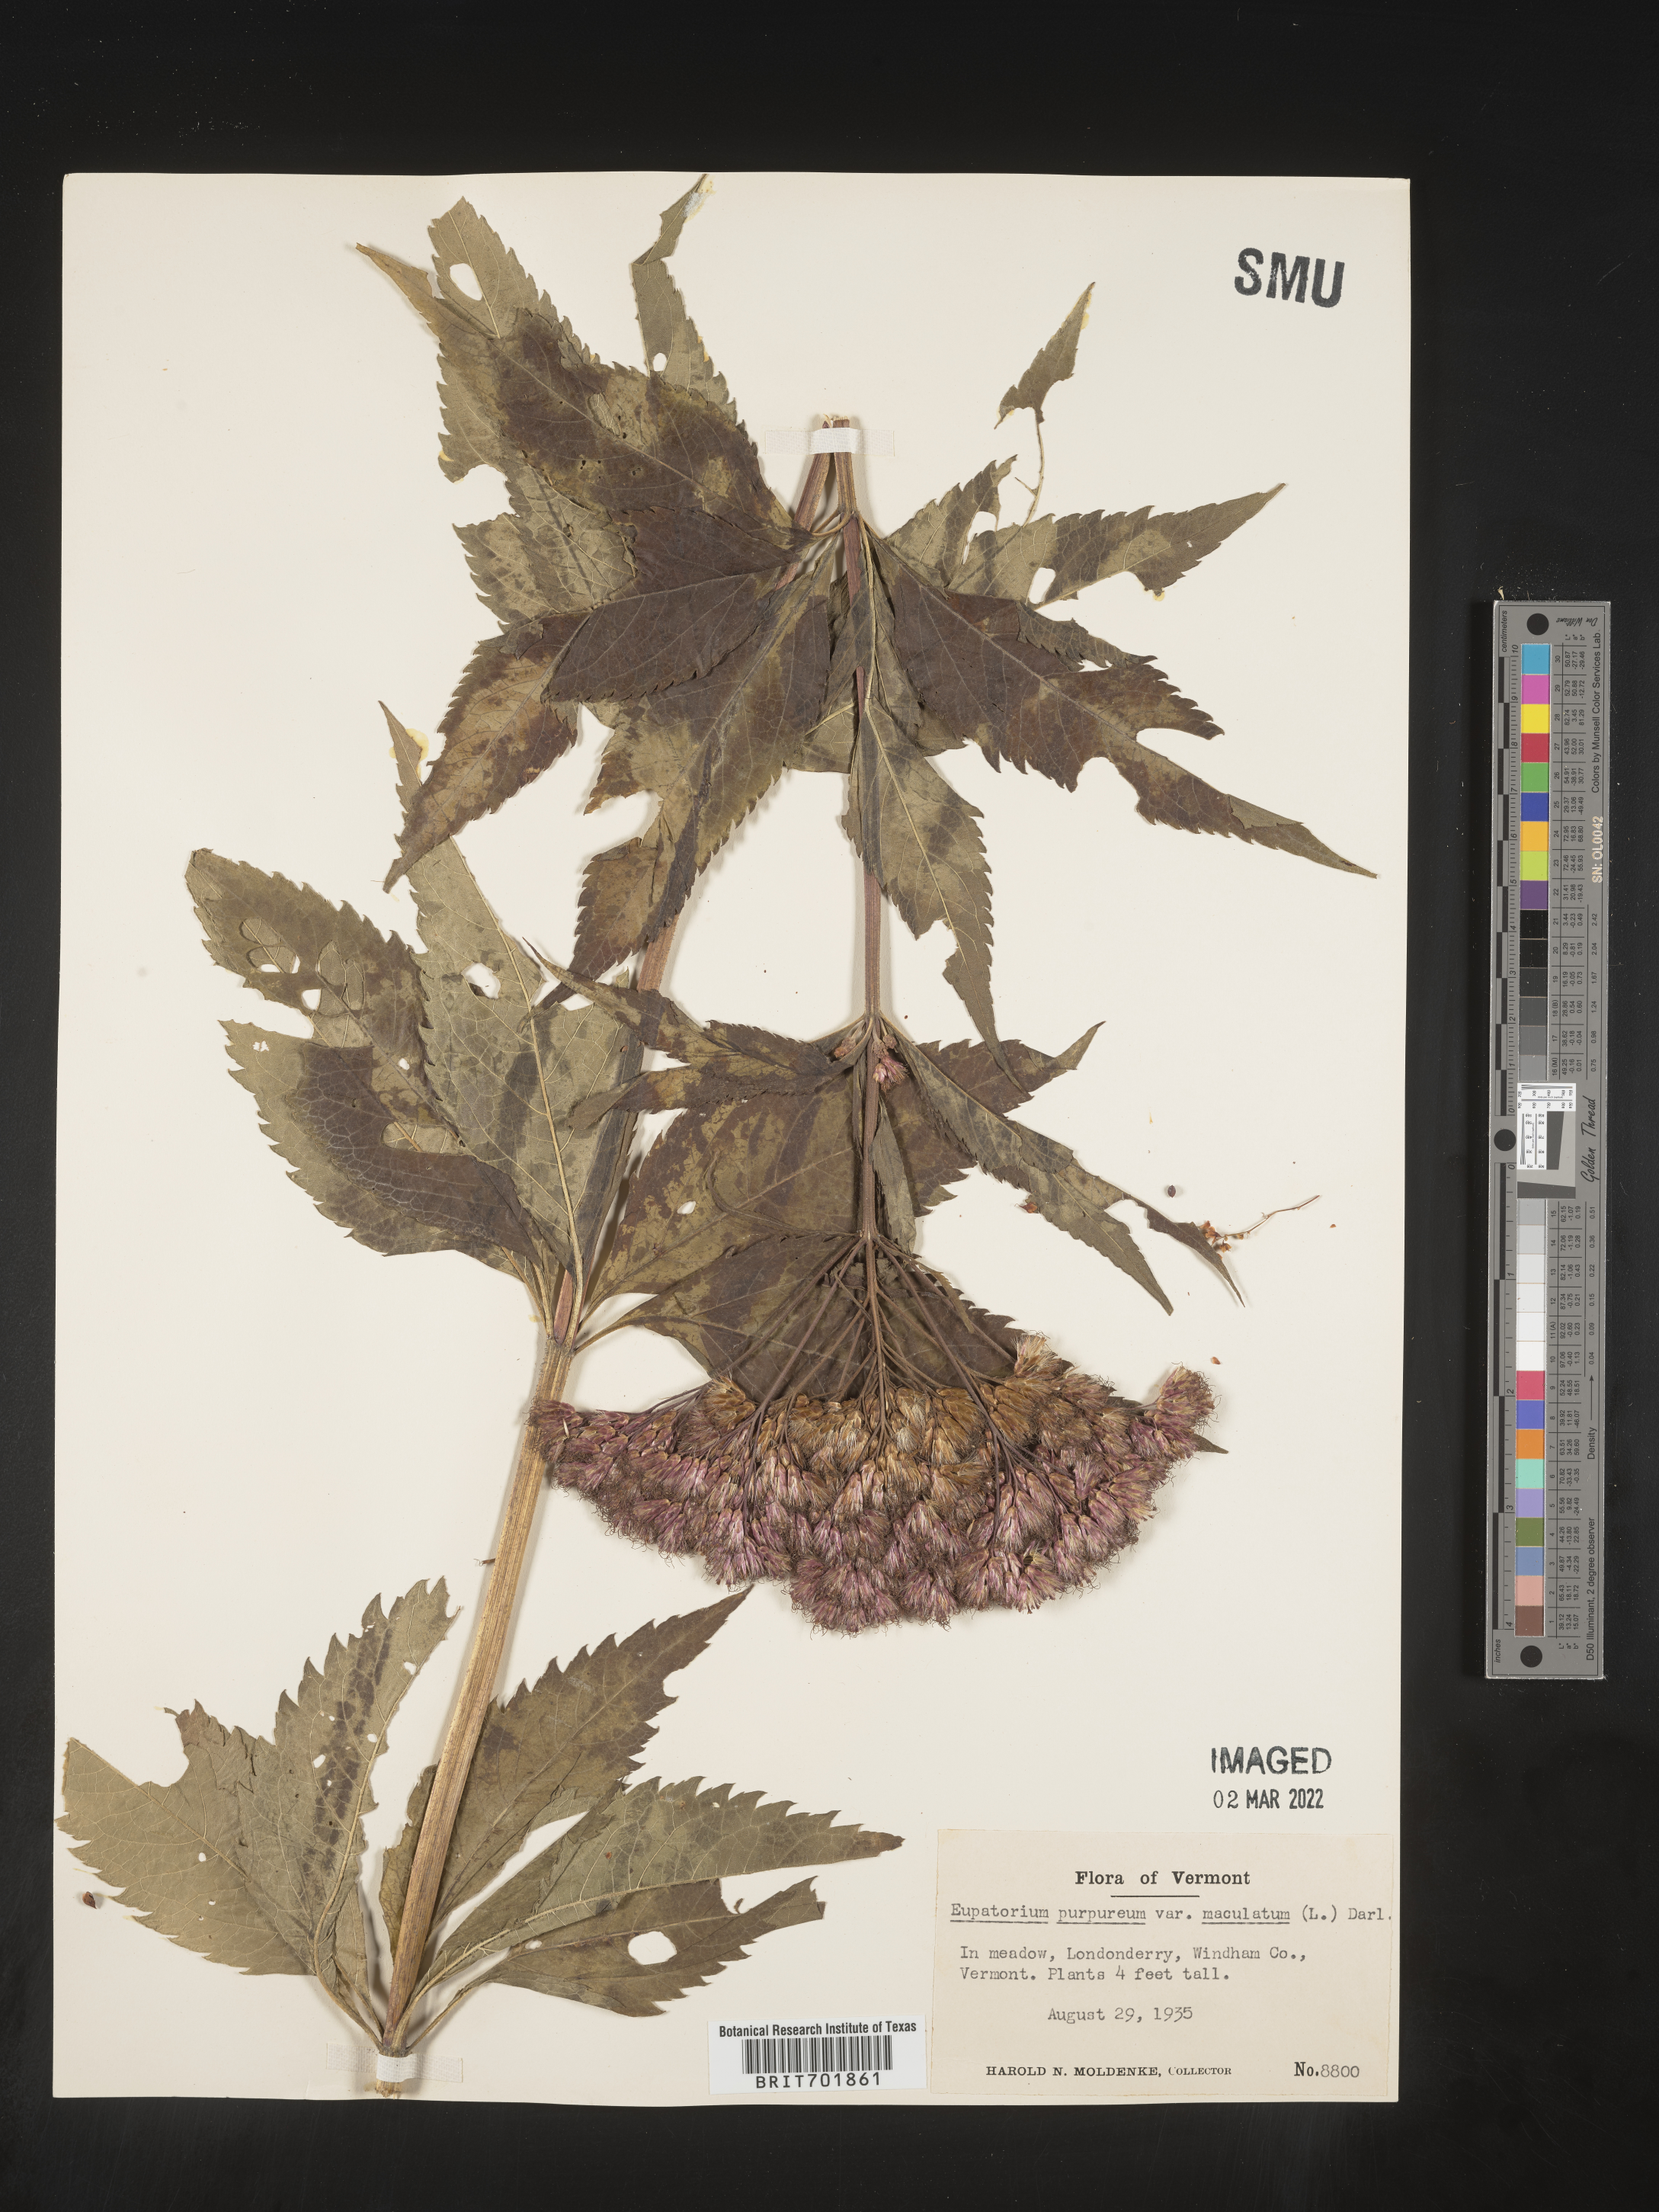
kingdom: Plantae
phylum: Tracheophyta
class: Magnoliopsida
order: Asterales
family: Asteraceae
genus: Eupatorium
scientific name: Eupatorium quaternum
